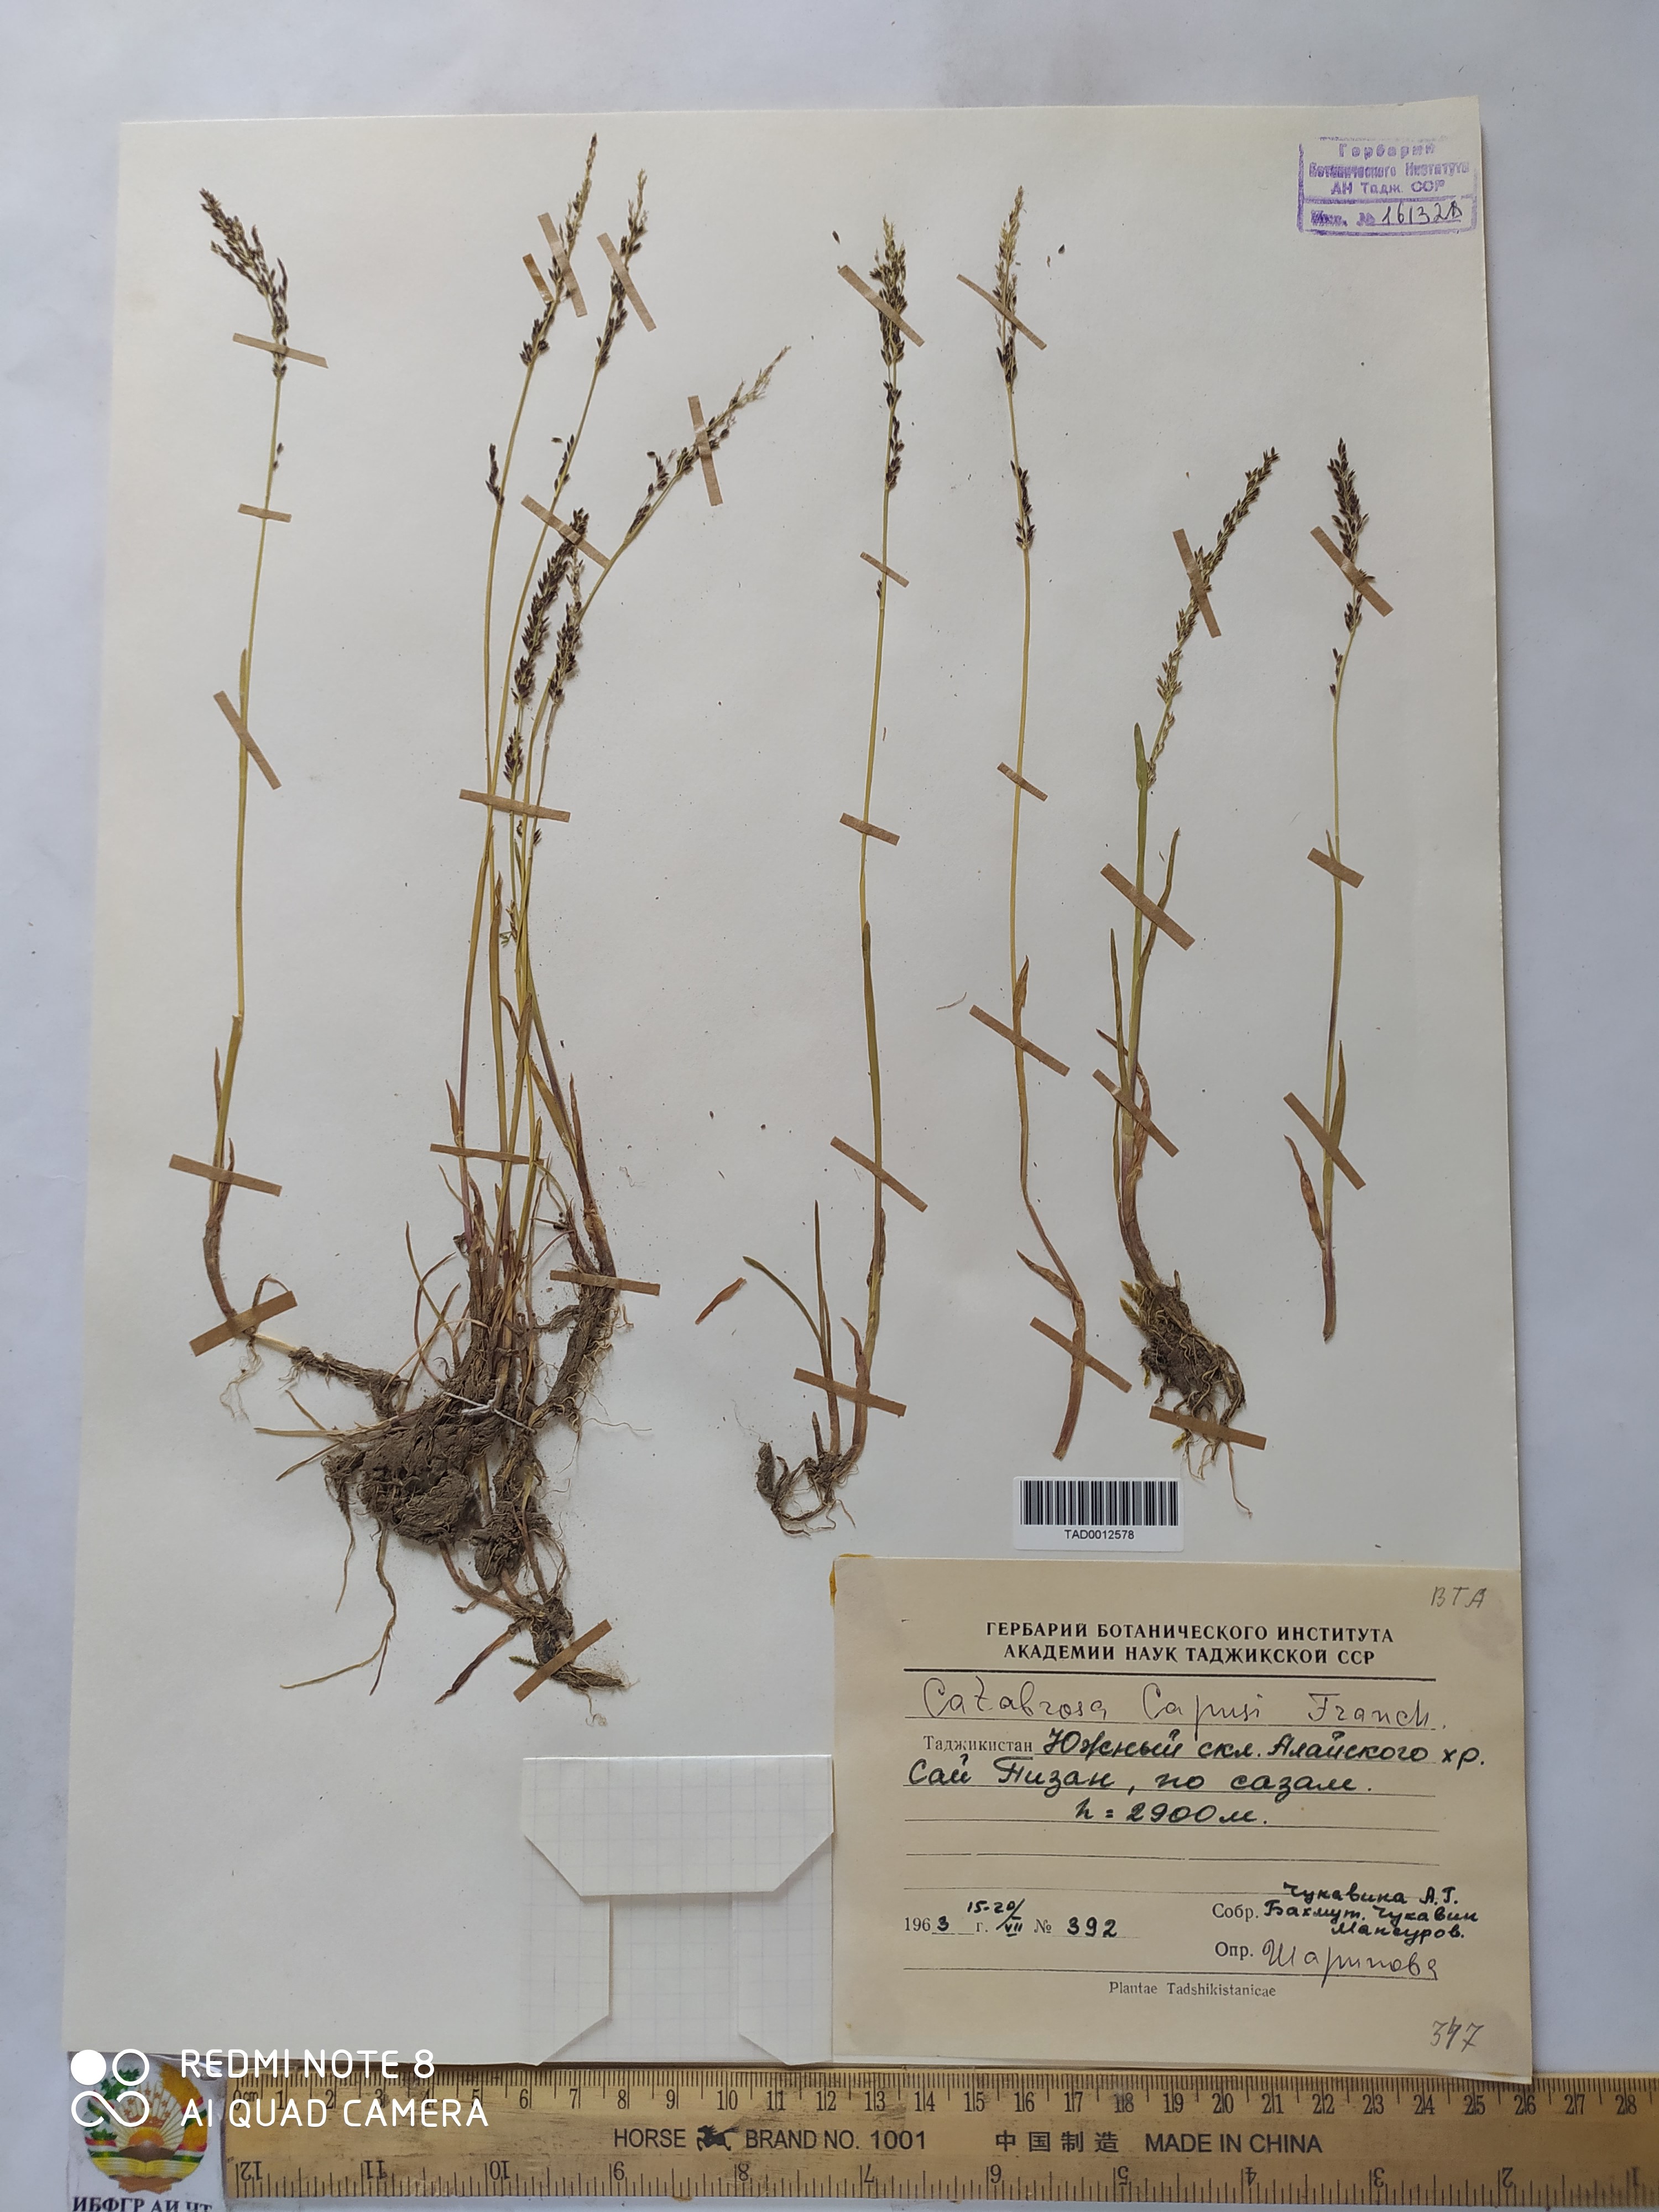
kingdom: Plantae
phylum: Tracheophyta
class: Liliopsida
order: Poales
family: Poaceae
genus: Catabrosa
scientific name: Catabrosa aquatica
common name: Whorl-grass
